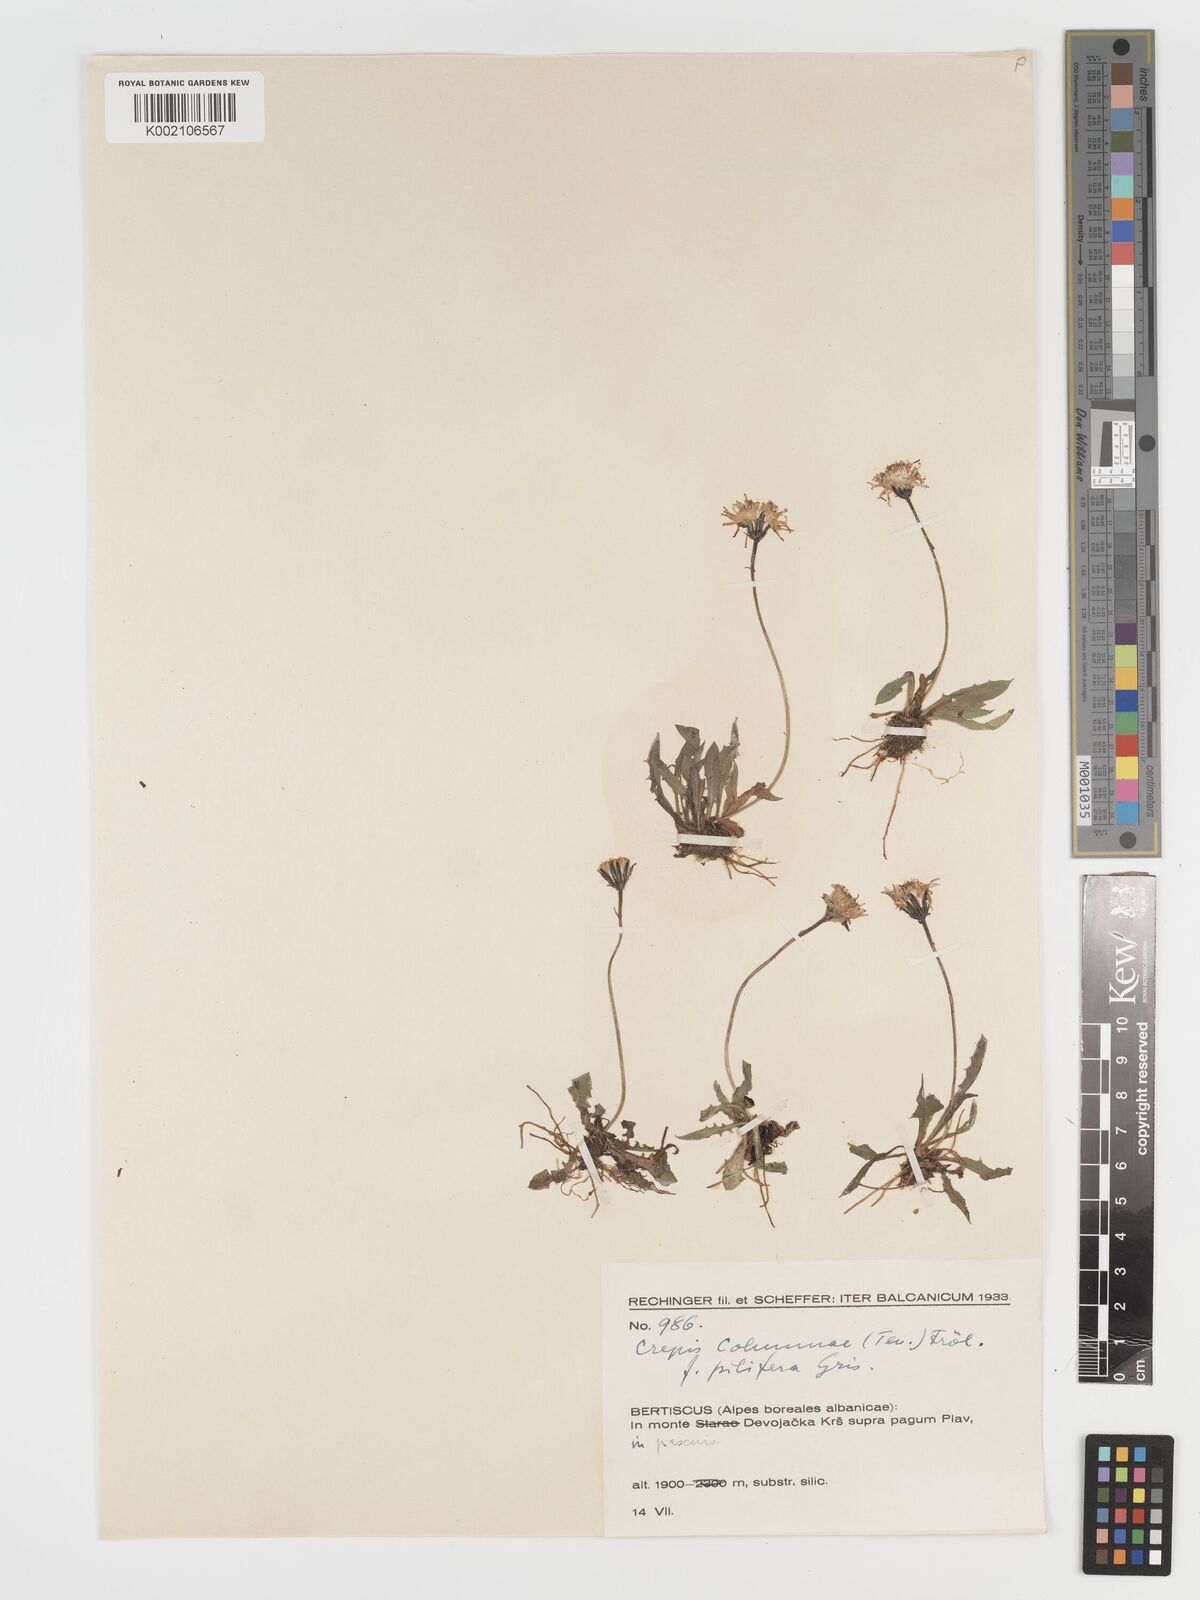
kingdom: Plantae
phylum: Tracheophyta
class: Magnoliopsida
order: Asterales
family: Asteraceae
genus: Crepis
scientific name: Crepis aurea
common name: Golden hawk's-beard
